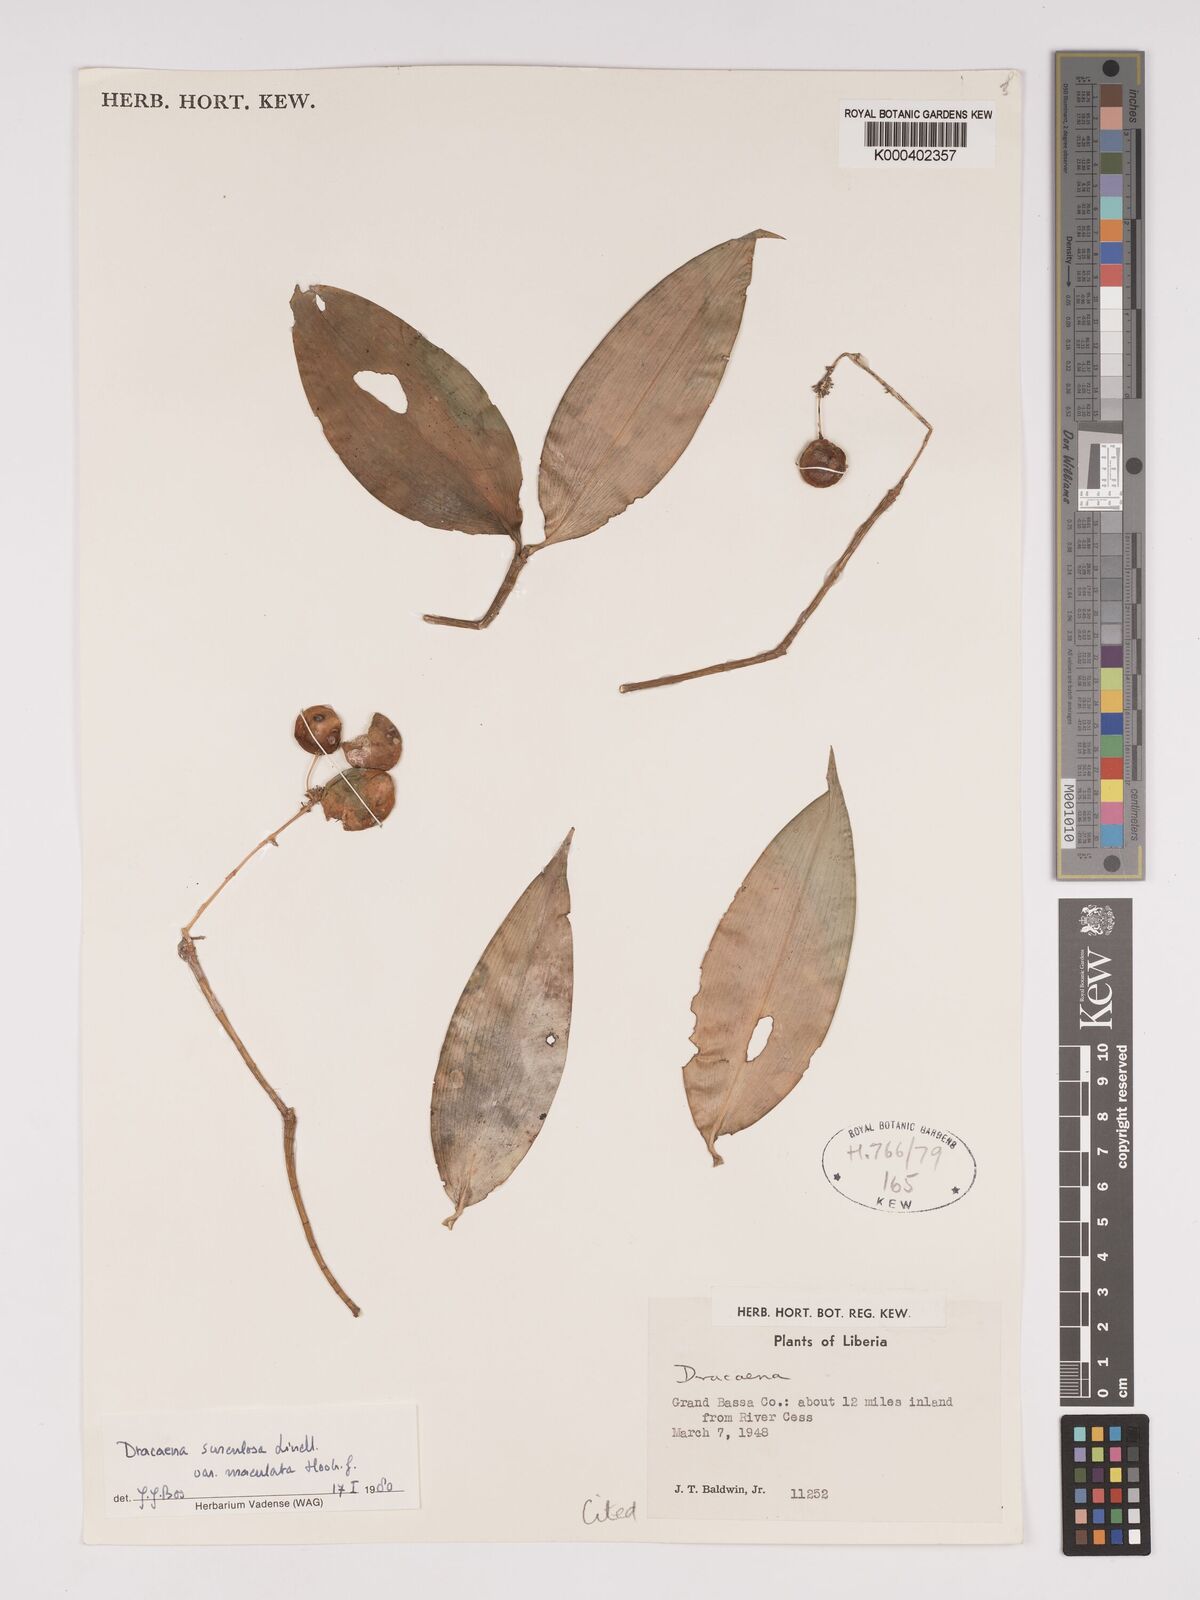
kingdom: Plantae
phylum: Tracheophyta
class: Liliopsida
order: Asparagales
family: Asparagaceae
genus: Dracaena
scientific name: Dracaena surculosa
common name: Spotted dracaena
